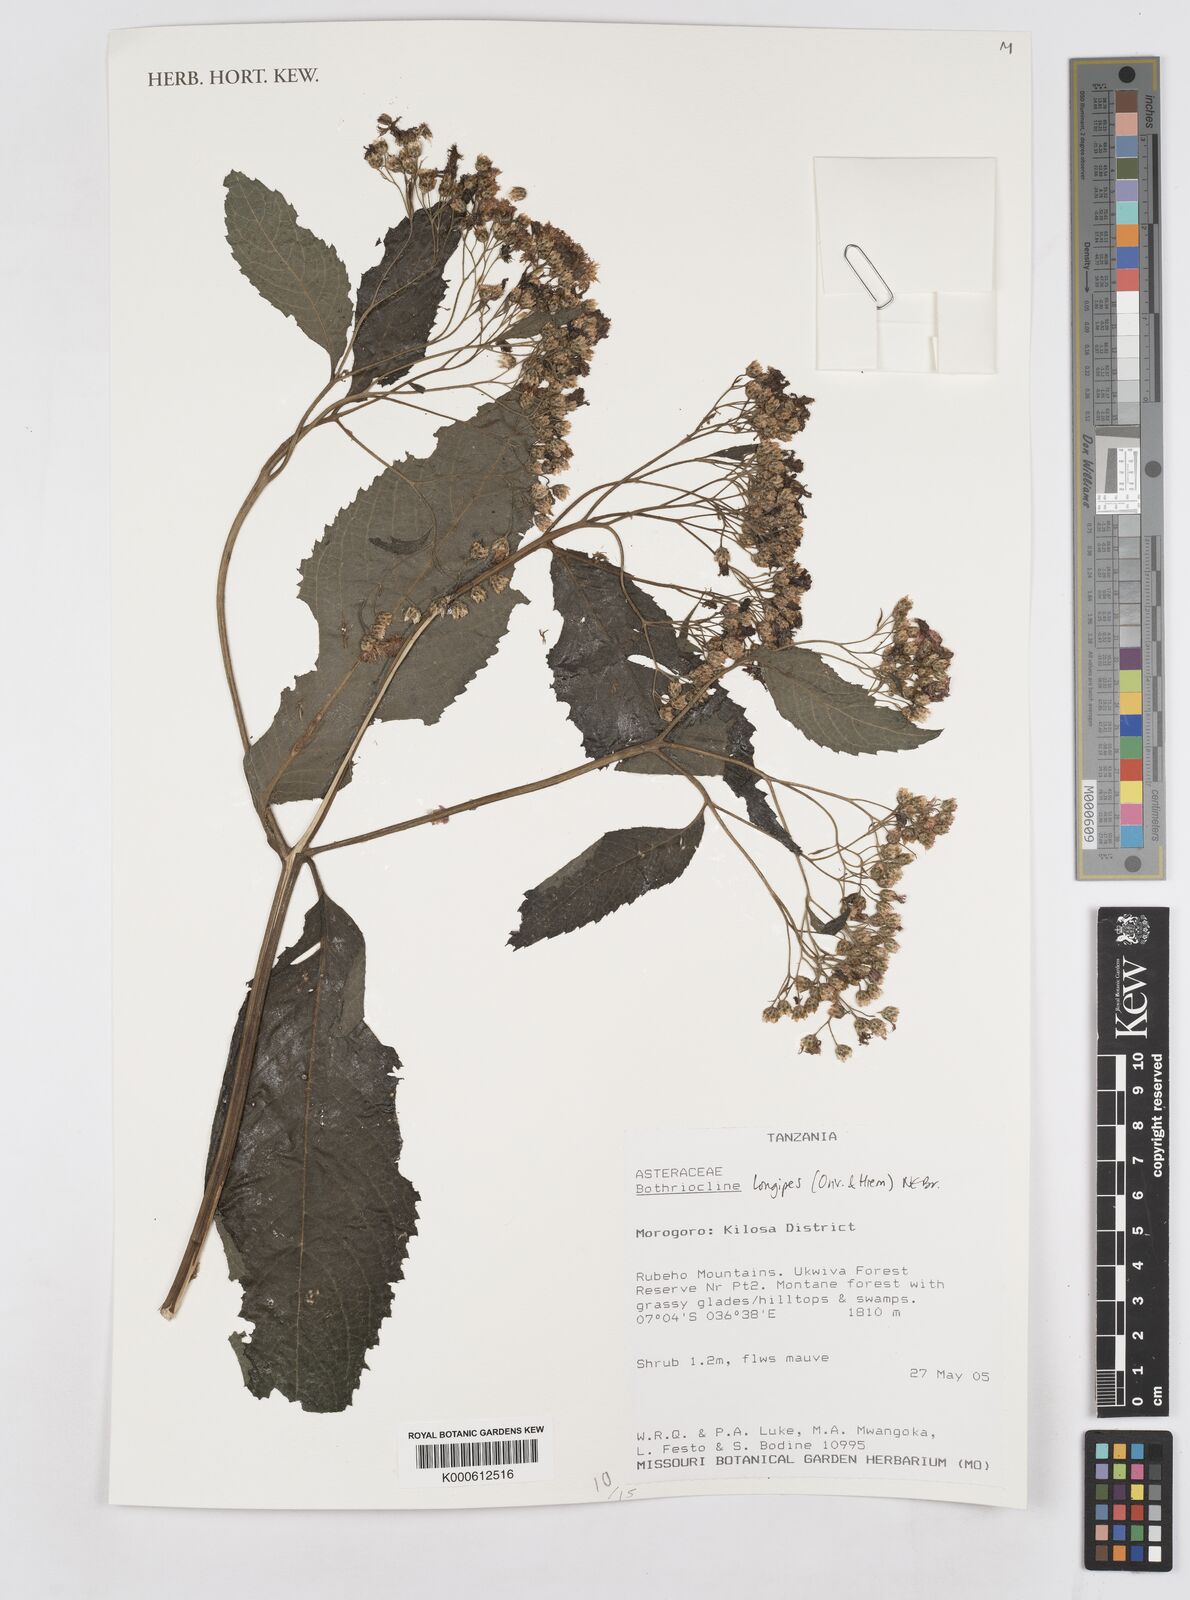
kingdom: Plantae
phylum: Tracheophyta
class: Magnoliopsida
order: Asterales
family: Asteraceae
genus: Bothriocline
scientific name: Bothriocline longipes
